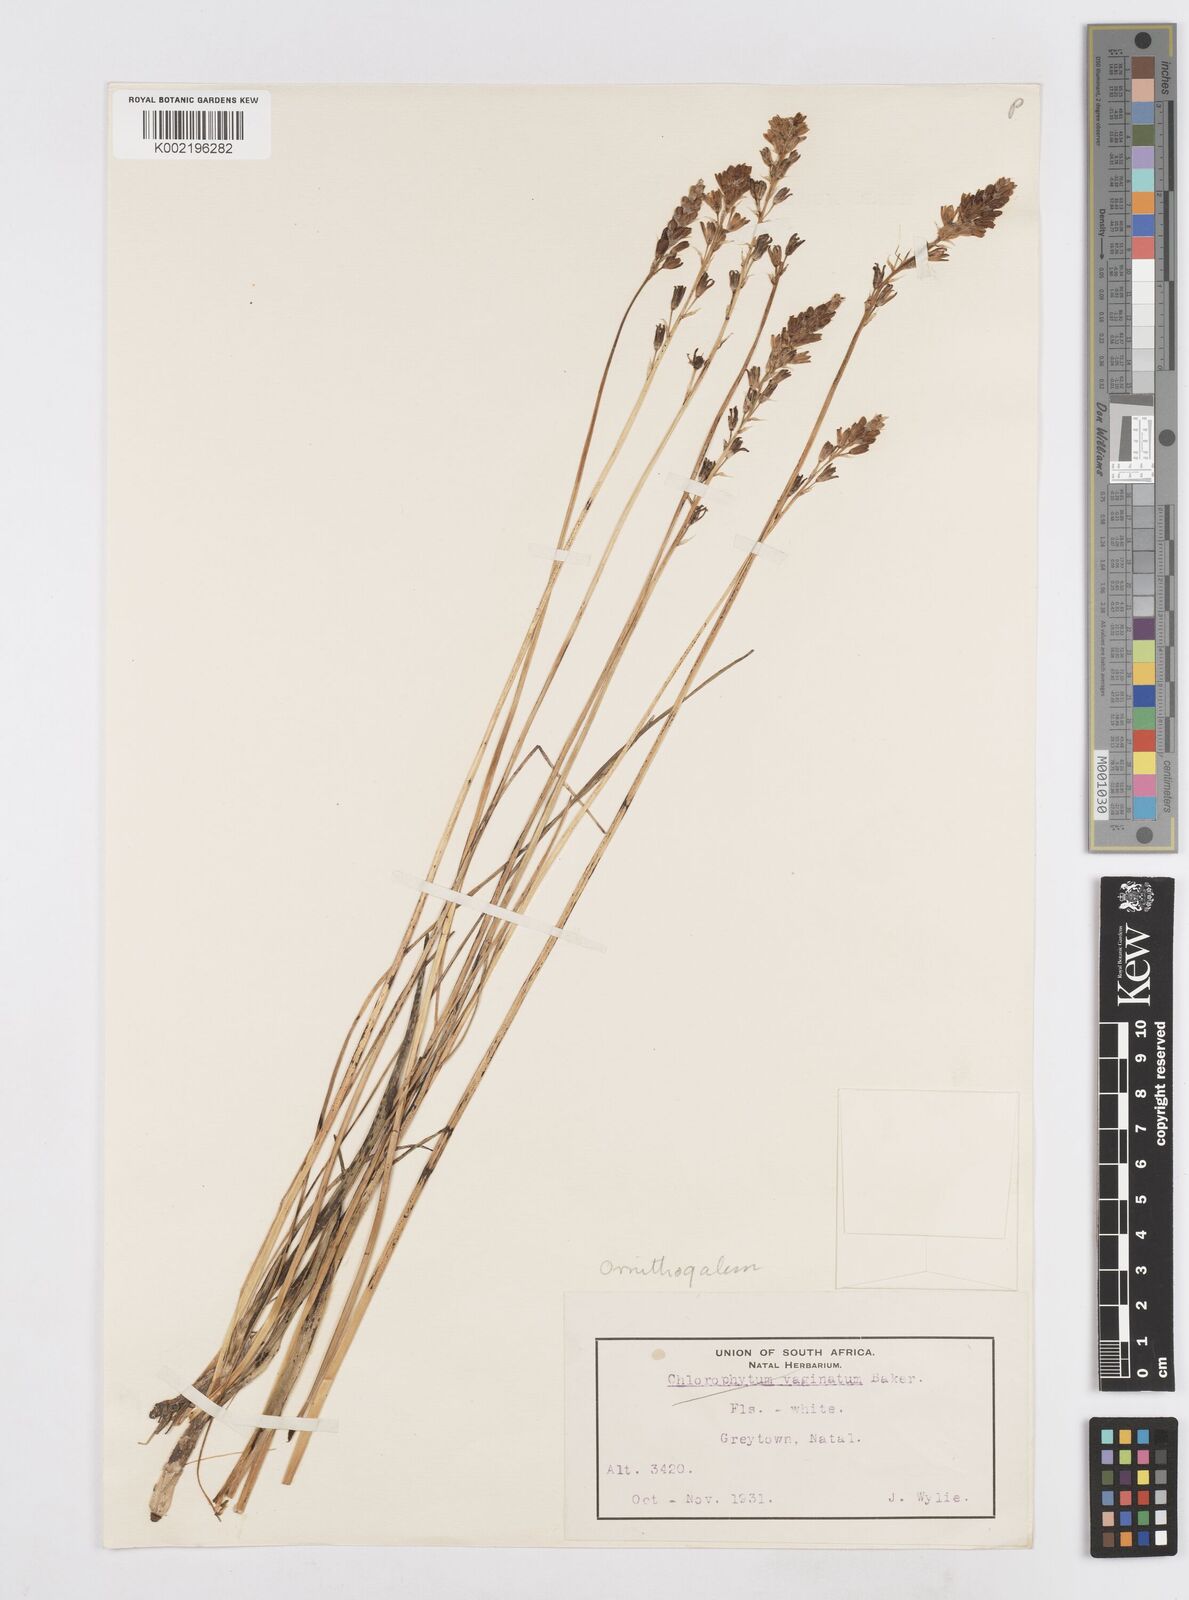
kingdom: Plantae
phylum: Tracheophyta
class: Liliopsida
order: Asparagales
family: Asparagaceae
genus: Ornithogalum
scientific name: Ornithogalum graminifolium
